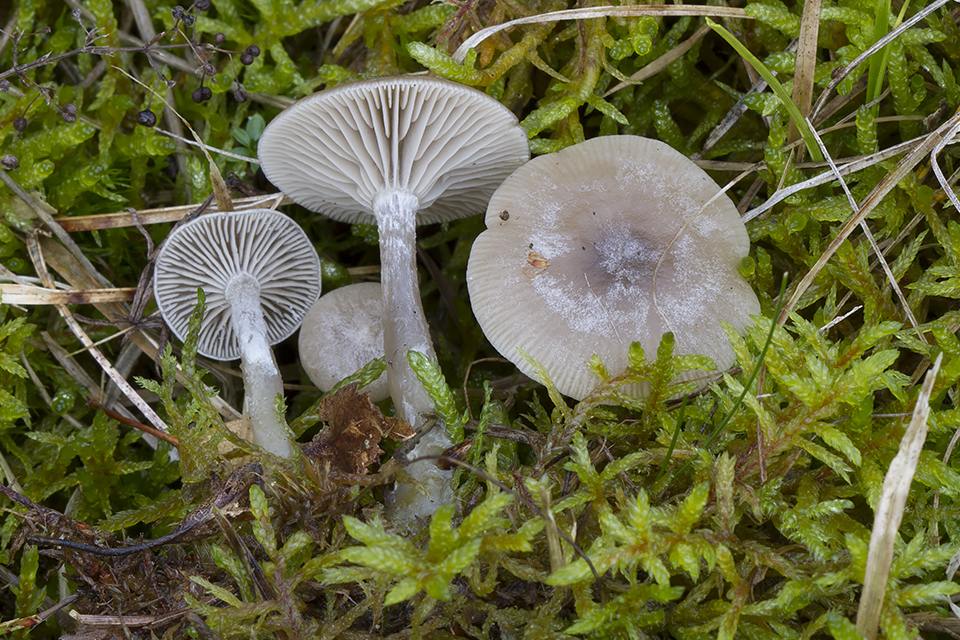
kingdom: Fungi
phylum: Basidiomycota
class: Agaricomycetes
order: Agaricales
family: Tricholomataceae
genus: Clitocybe
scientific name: Clitocybe vibecina
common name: randstribet tragthat
